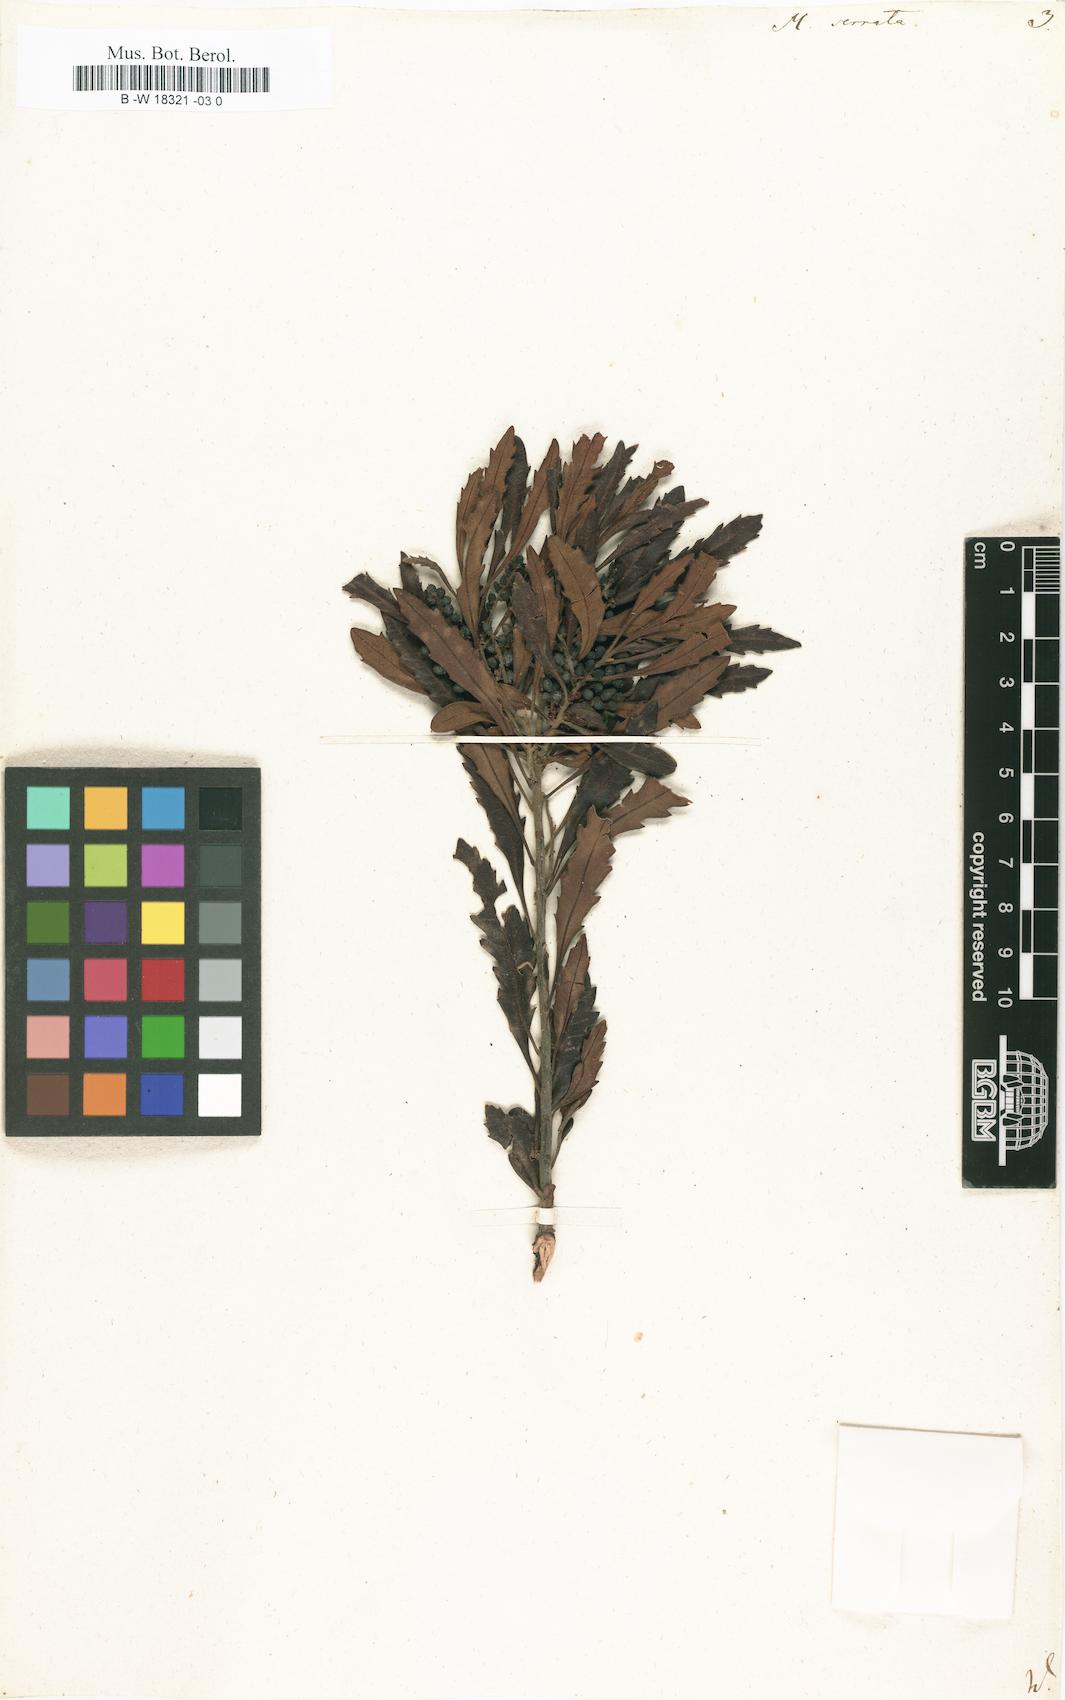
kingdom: Plantae
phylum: Tracheophyta
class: Magnoliopsida
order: Fagales
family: Myricaceae
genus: Morella
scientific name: Morella serrata
